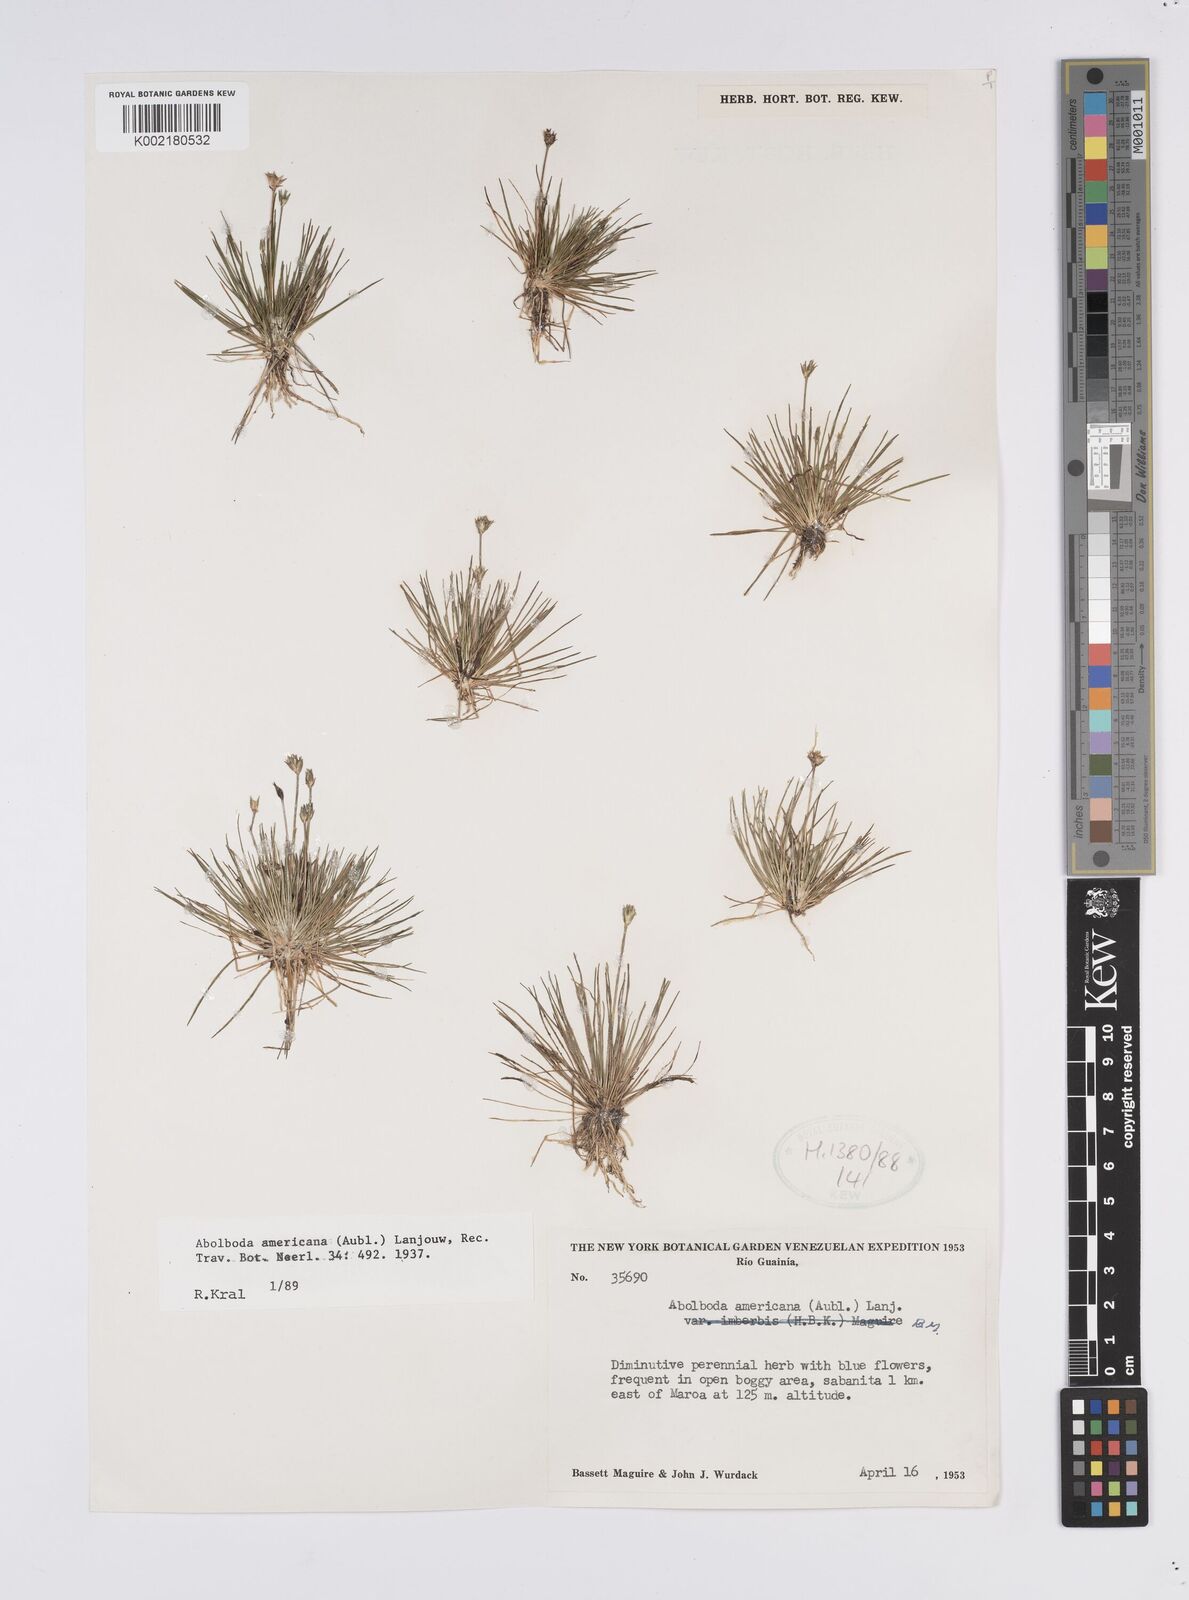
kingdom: Plantae
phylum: Tracheophyta
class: Liliopsida
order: Poales
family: Xyridaceae
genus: Abolboda
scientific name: Abolboda americana
